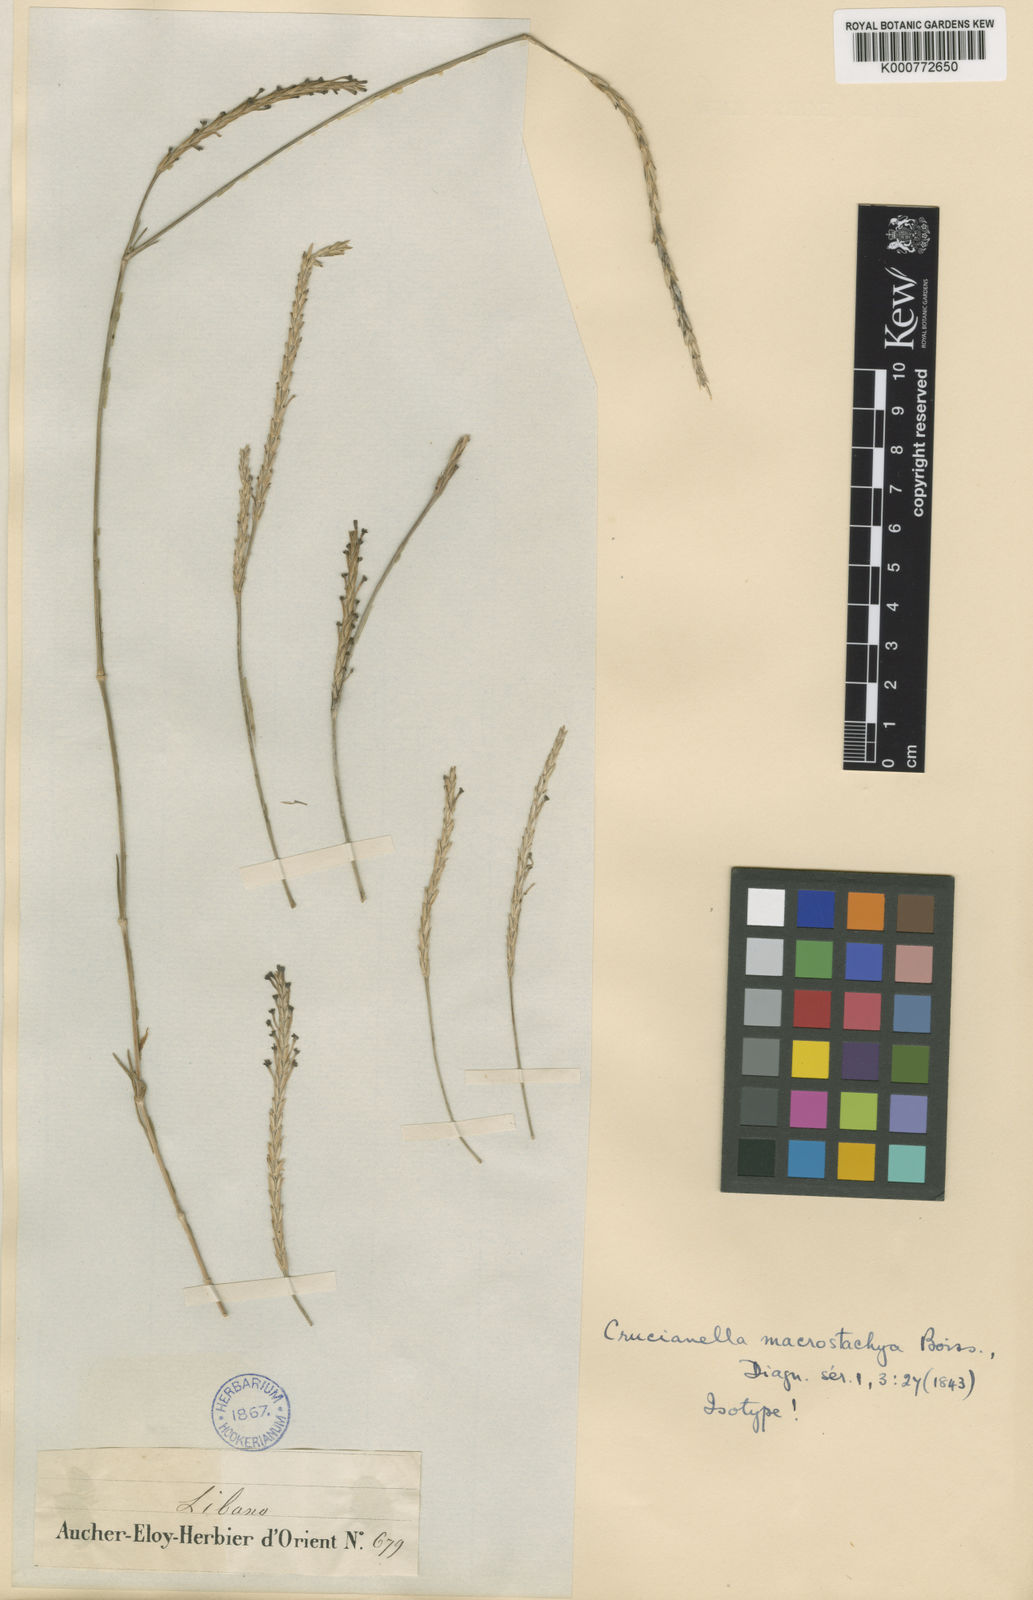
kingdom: Plantae
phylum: Tracheophyta
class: Magnoliopsida
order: Gentianales
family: Rubiaceae
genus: Crucianella
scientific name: Crucianella macrostachya
